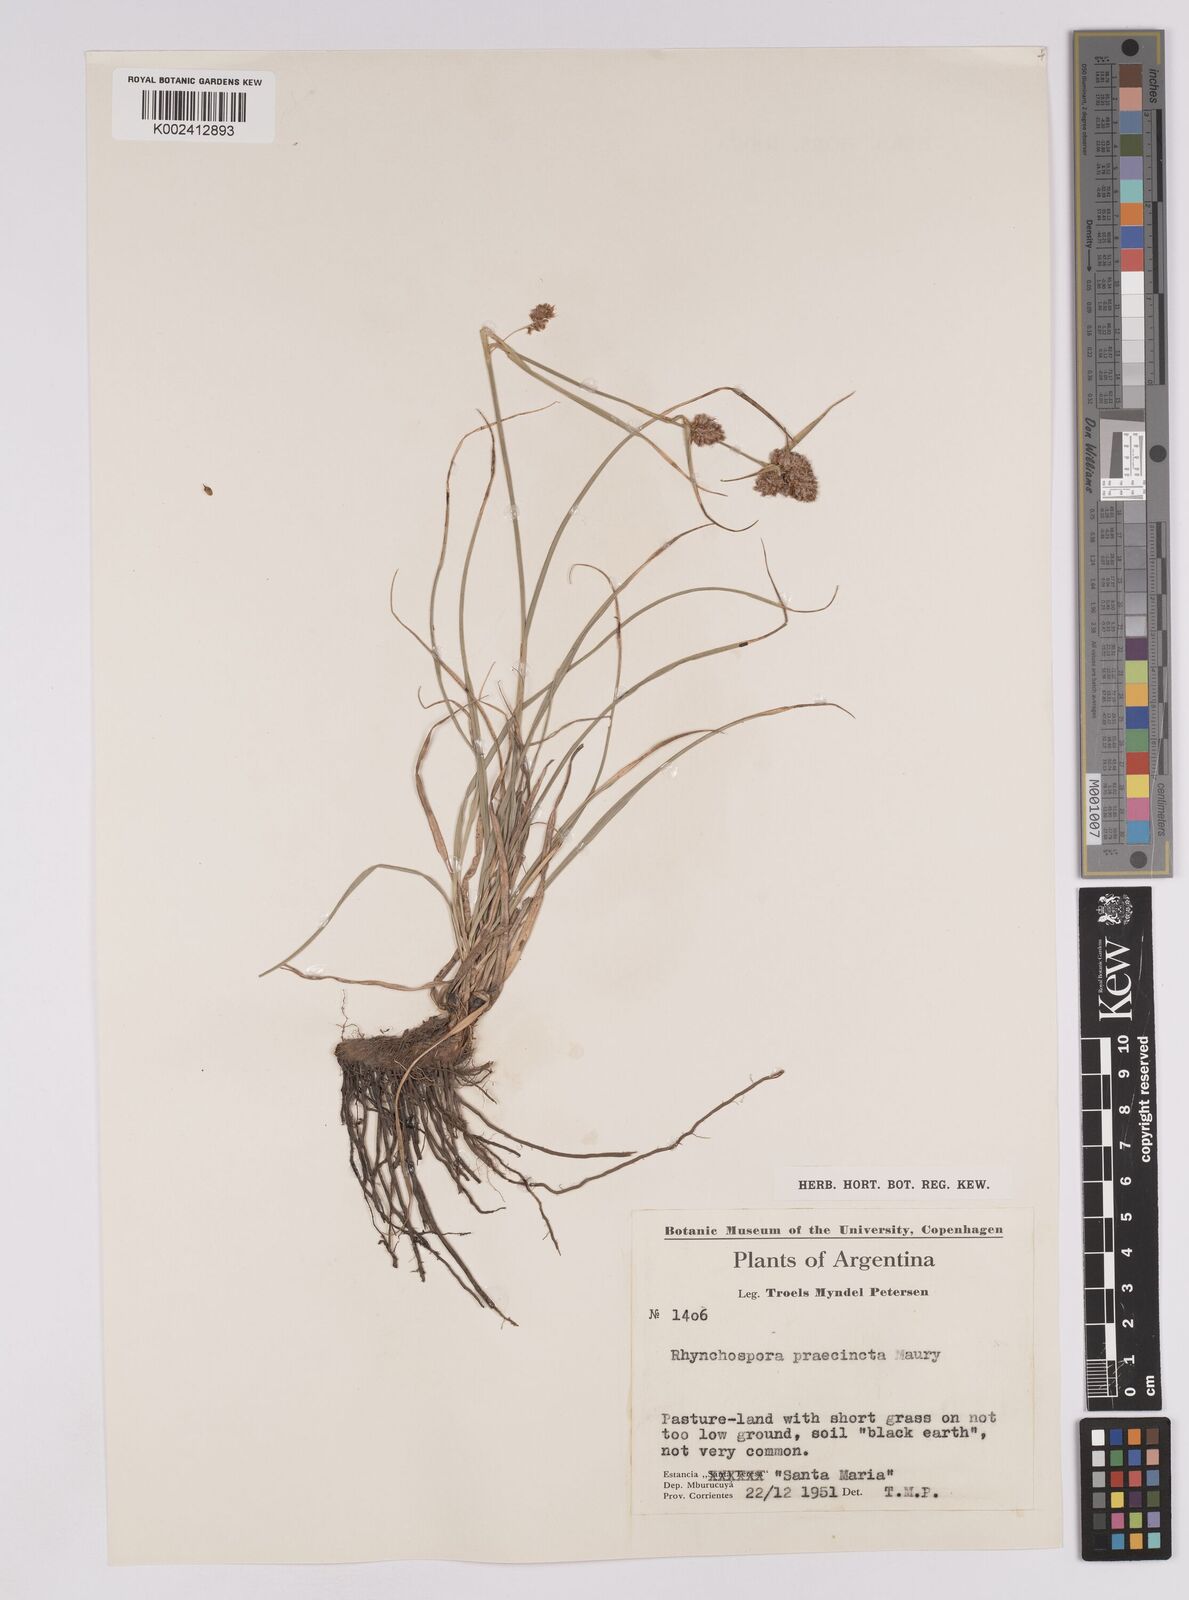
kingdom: Plantae
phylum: Tracheophyta
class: Liliopsida
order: Poales
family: Cyperaceae
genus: Rhynchospora
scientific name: Rhynchospora praecincta
